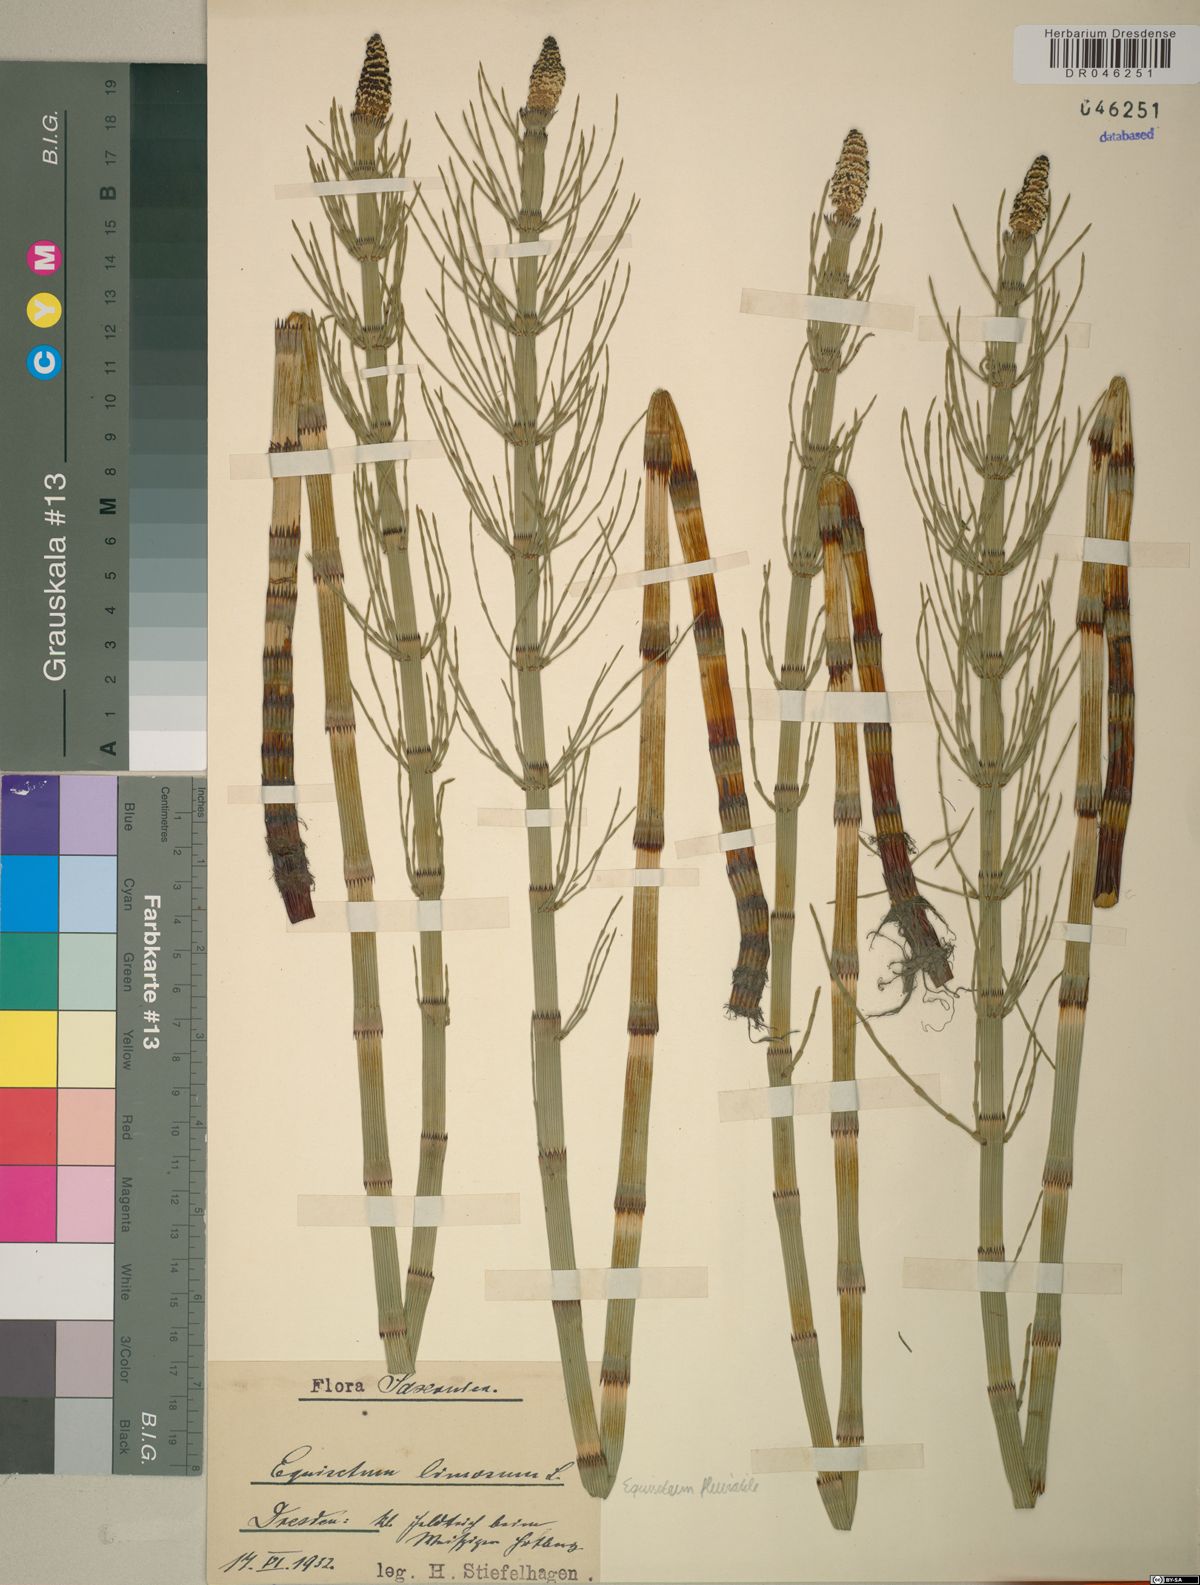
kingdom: Plantae
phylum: Tracheophyta
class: Polypodiopsida
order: Equisetales
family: Equisetaceae
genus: Equisetum
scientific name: Equisetum fluviatile
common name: Water horsetail
